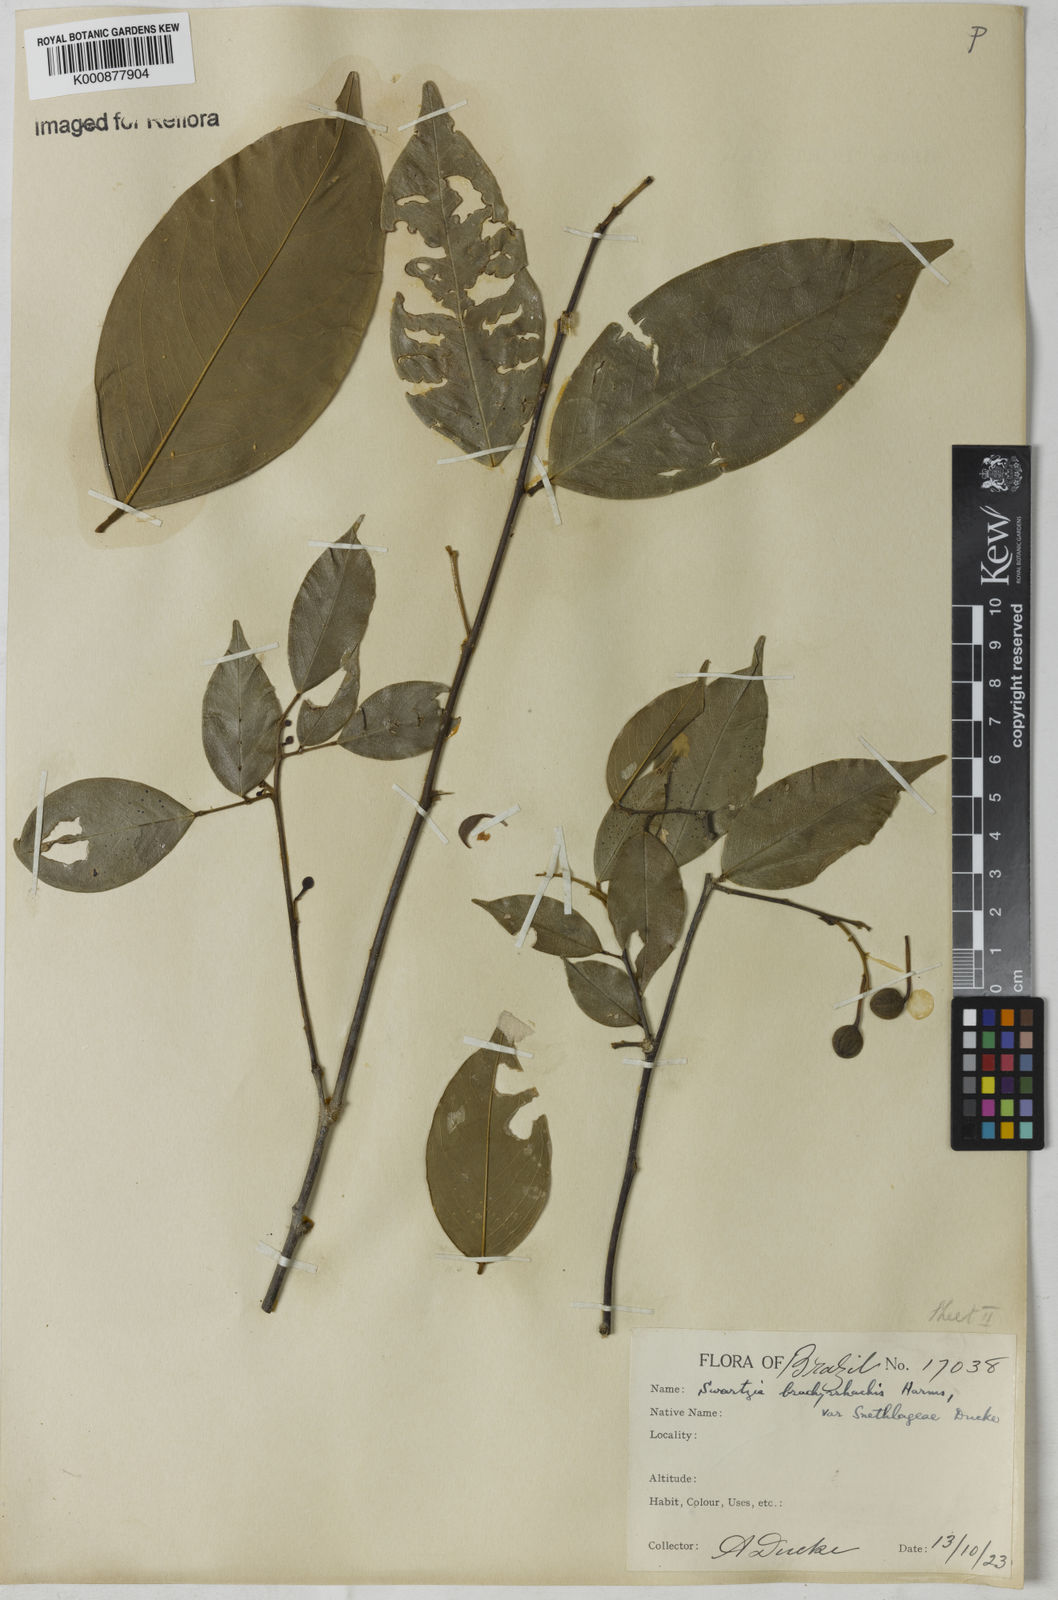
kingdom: Plantae
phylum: Tracheophyta
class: Magnoliopsida
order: Fabales
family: Fabaceae
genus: Swartzia
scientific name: Swartzia
